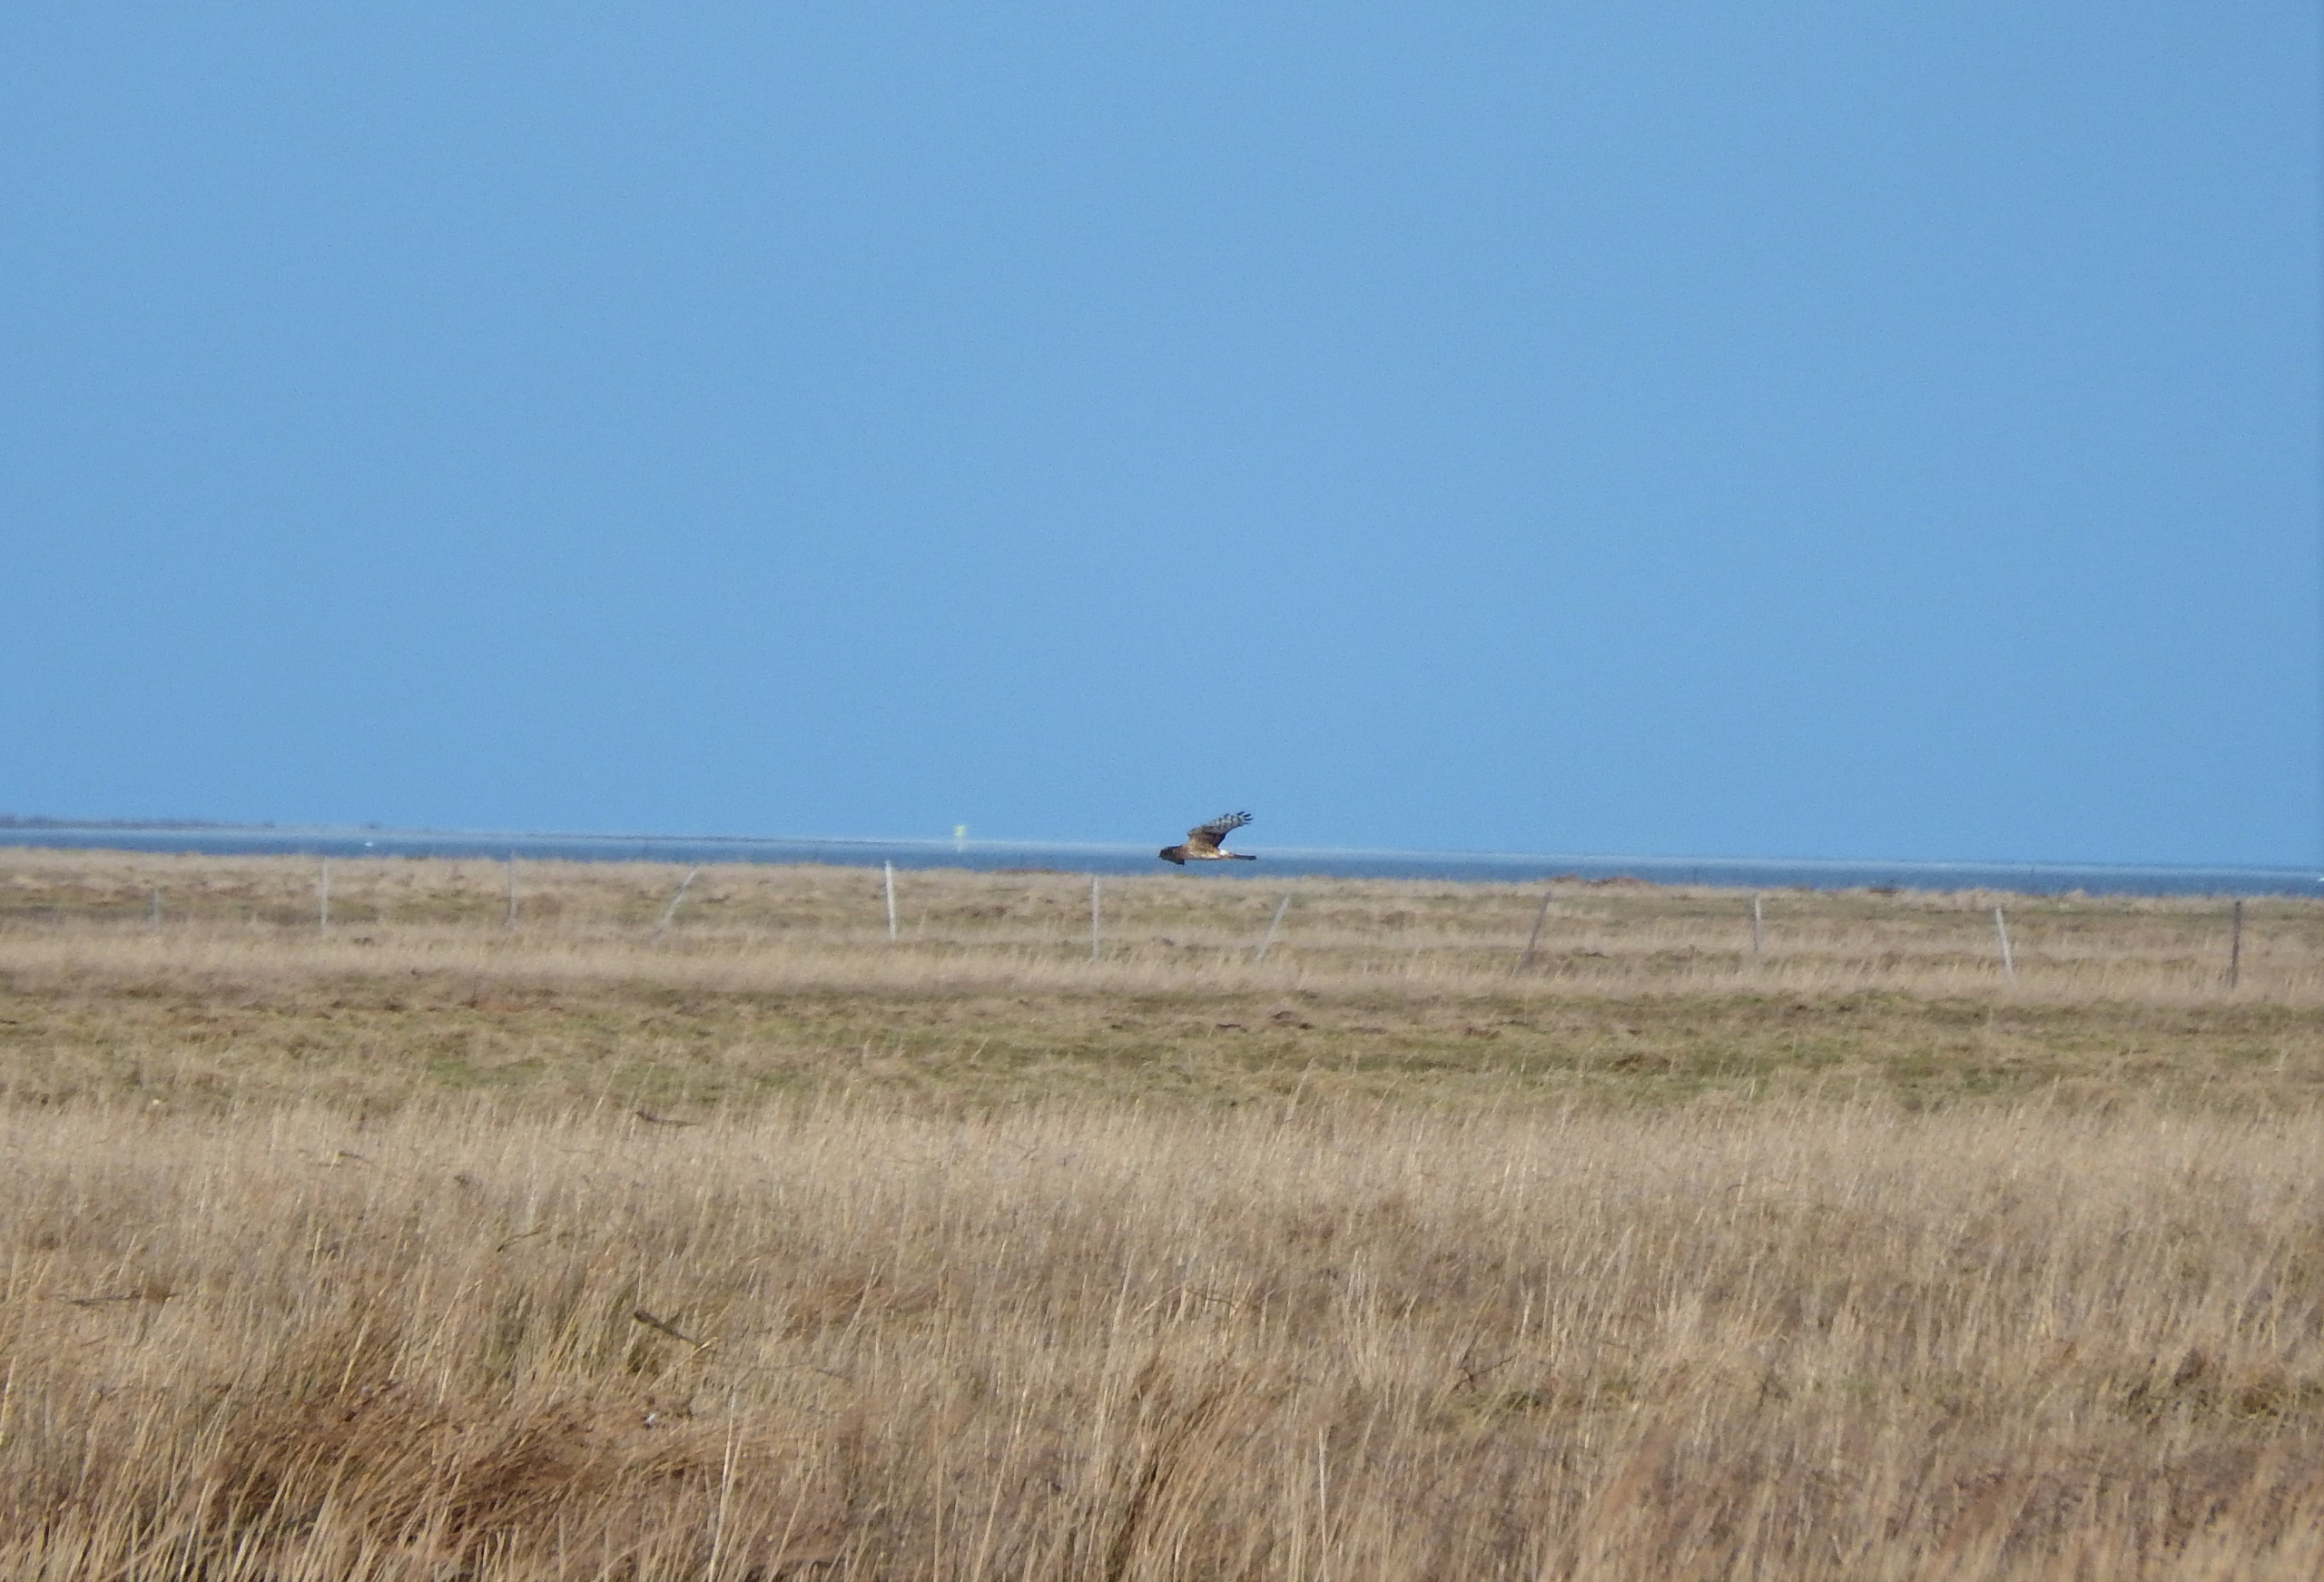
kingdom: Animalia
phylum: Chordata
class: Aves
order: Accipitriformes
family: Accipitridae
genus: Circus
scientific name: Circus cyaneus
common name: Blå kærhøg
